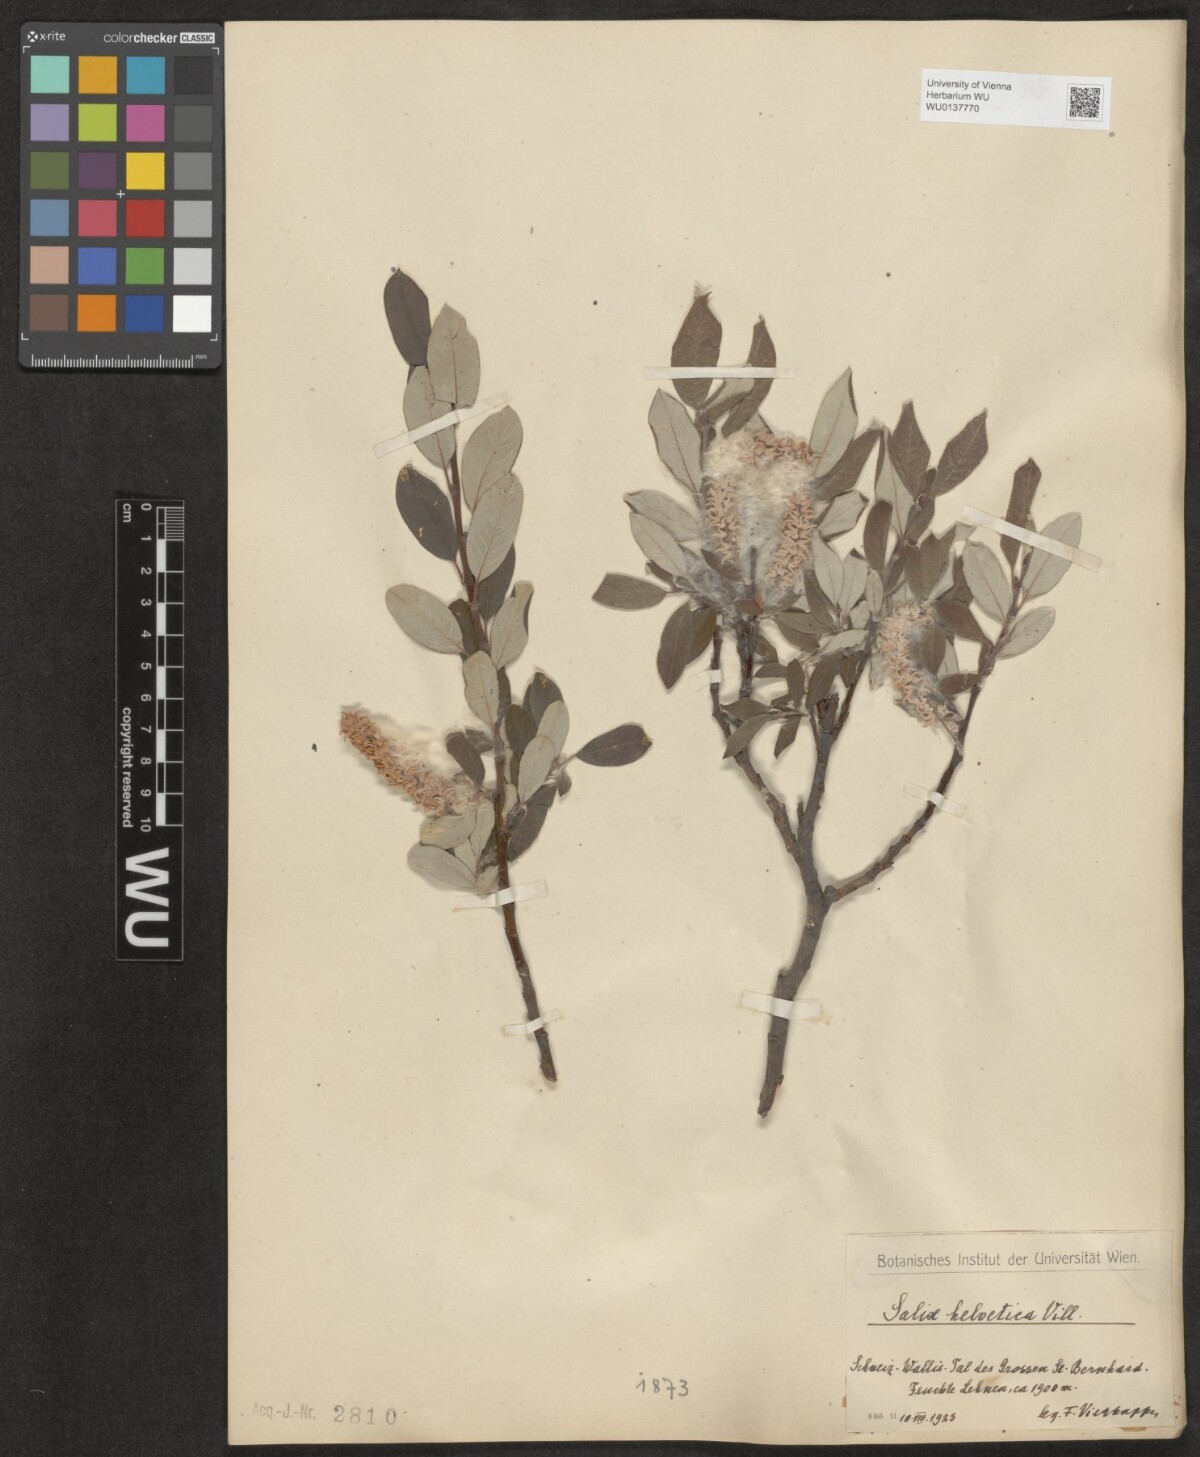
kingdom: Plantae
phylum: Tracheophyta
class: Magnoliopsida
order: Malpighiales
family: Salicaceae
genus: Salix
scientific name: Salix helvetica
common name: Swiss willow
